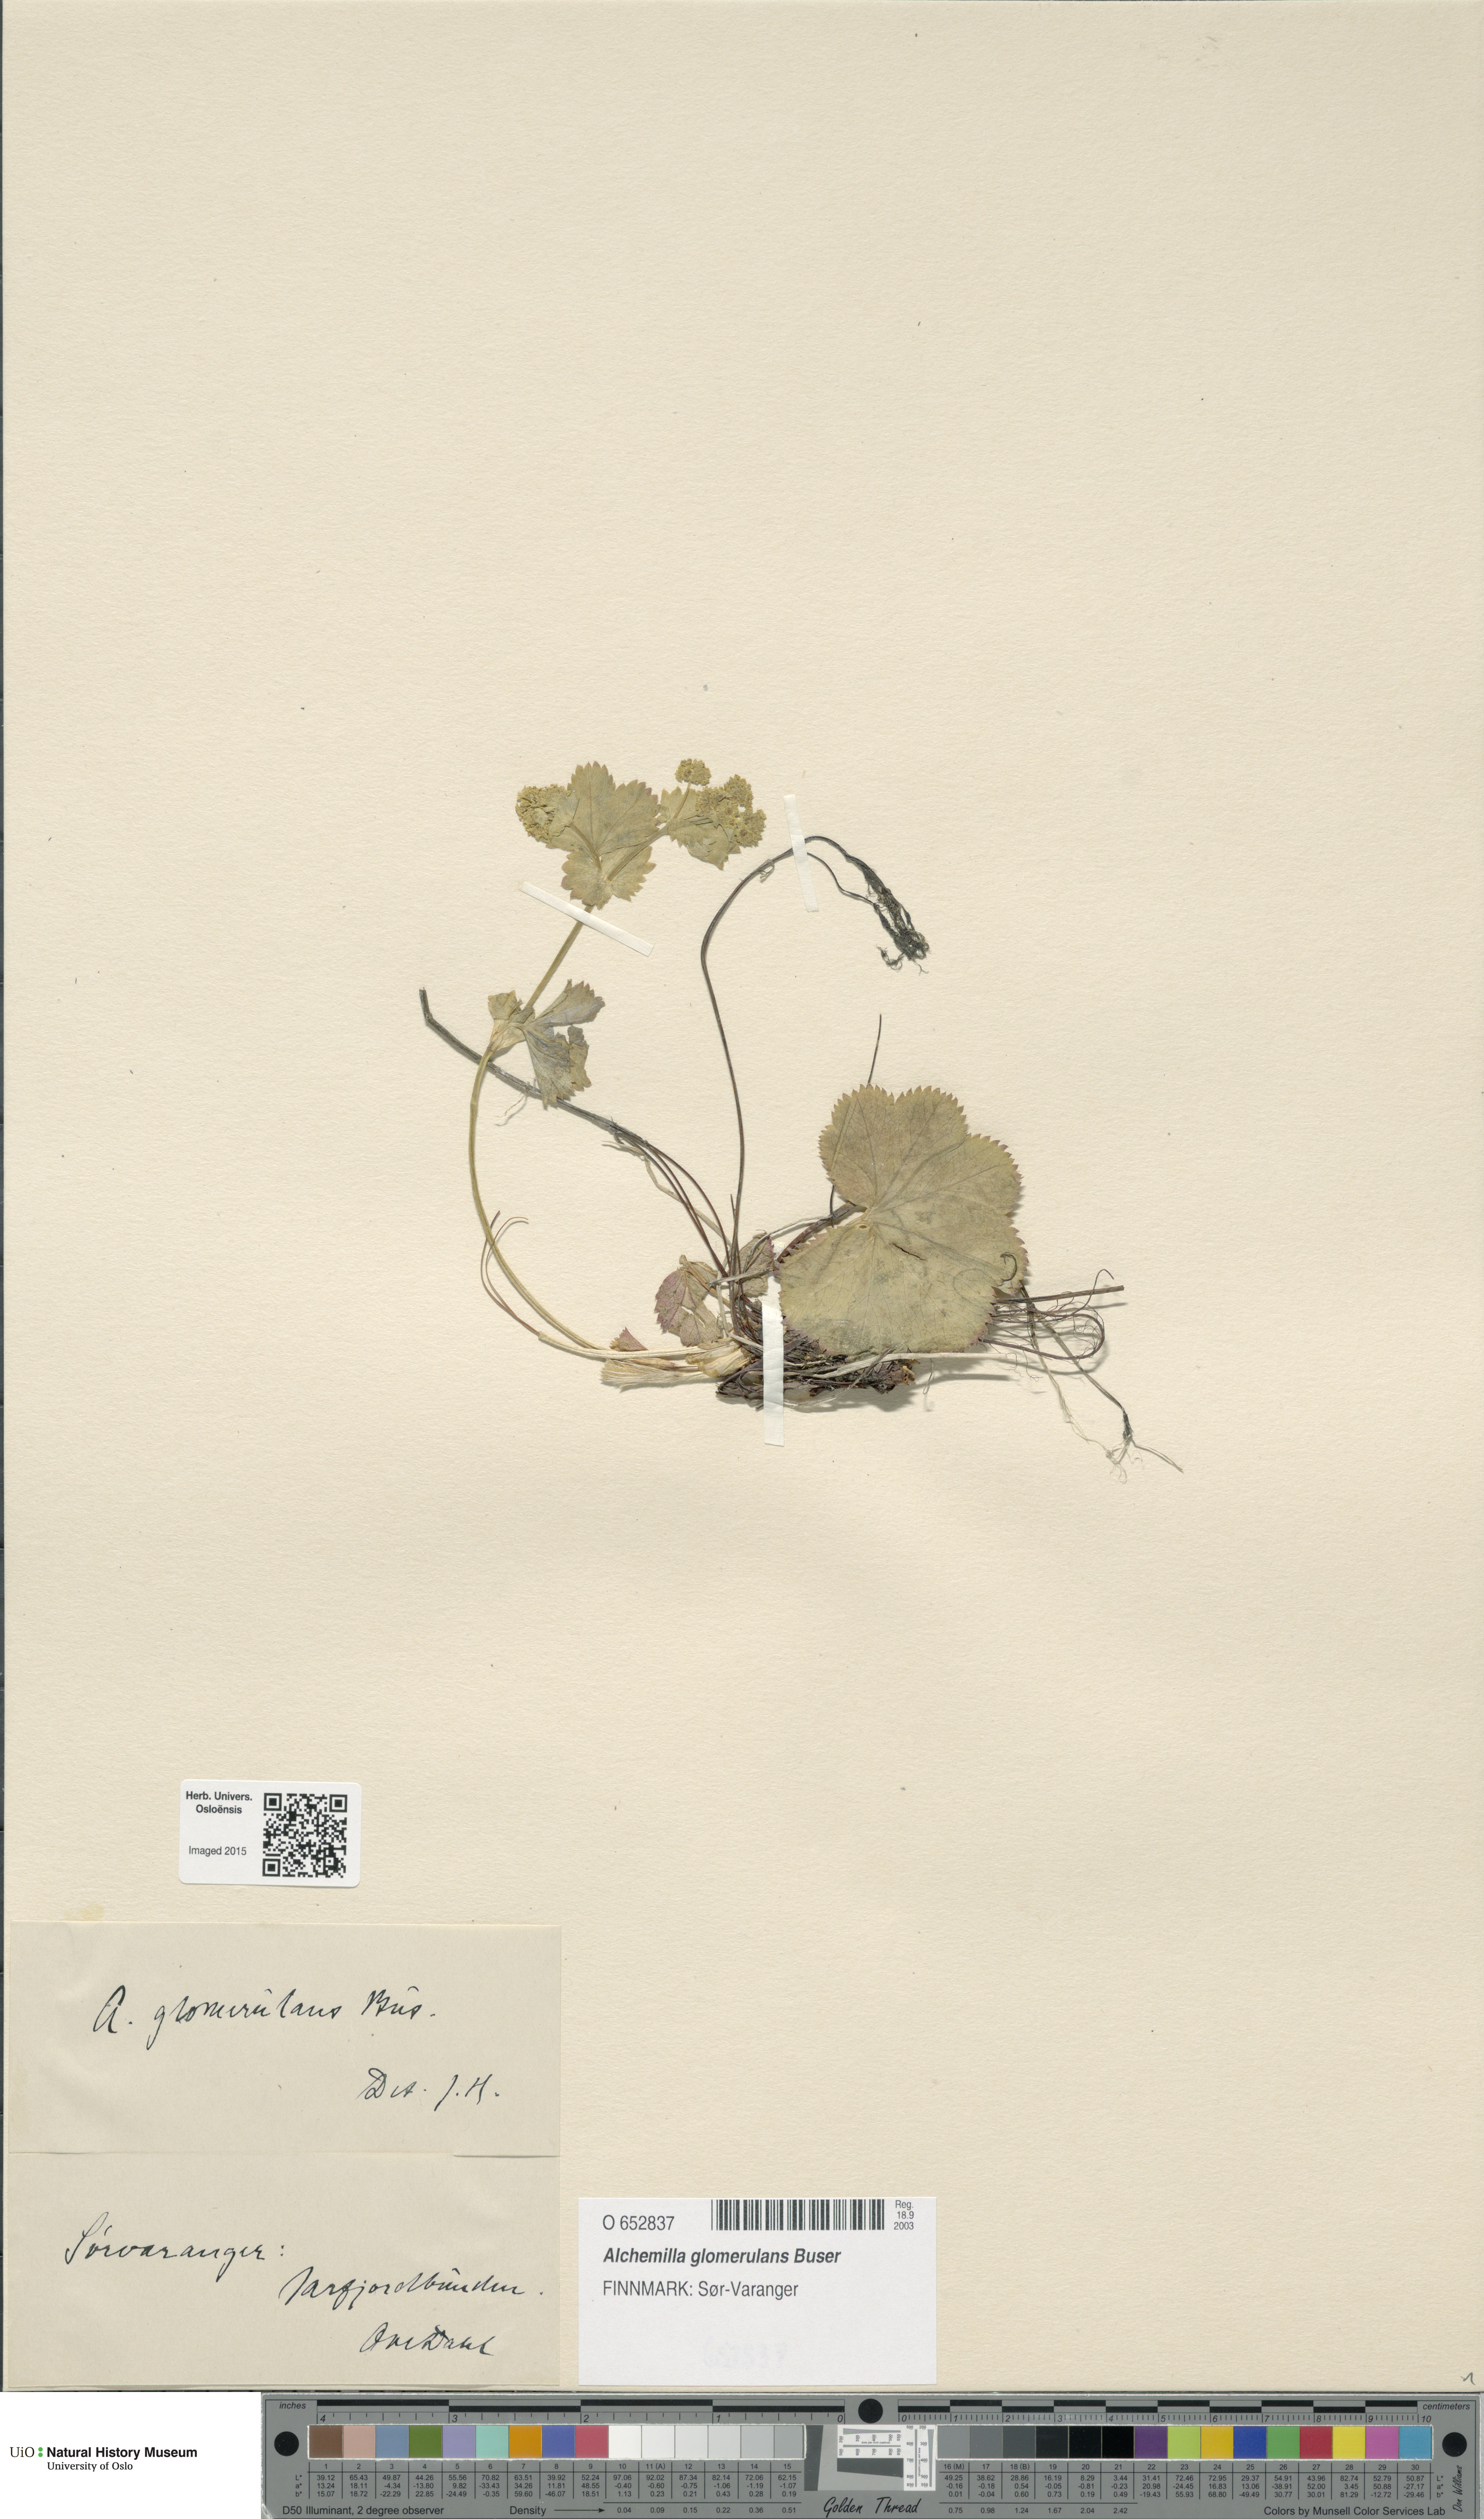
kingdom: Plantae
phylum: Tracheophyta
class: Magnoliopsida
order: Rosales
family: Rosaceae
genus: Alchemilla
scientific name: Alchemilla glomerulans
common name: Clustered lady's mantle
